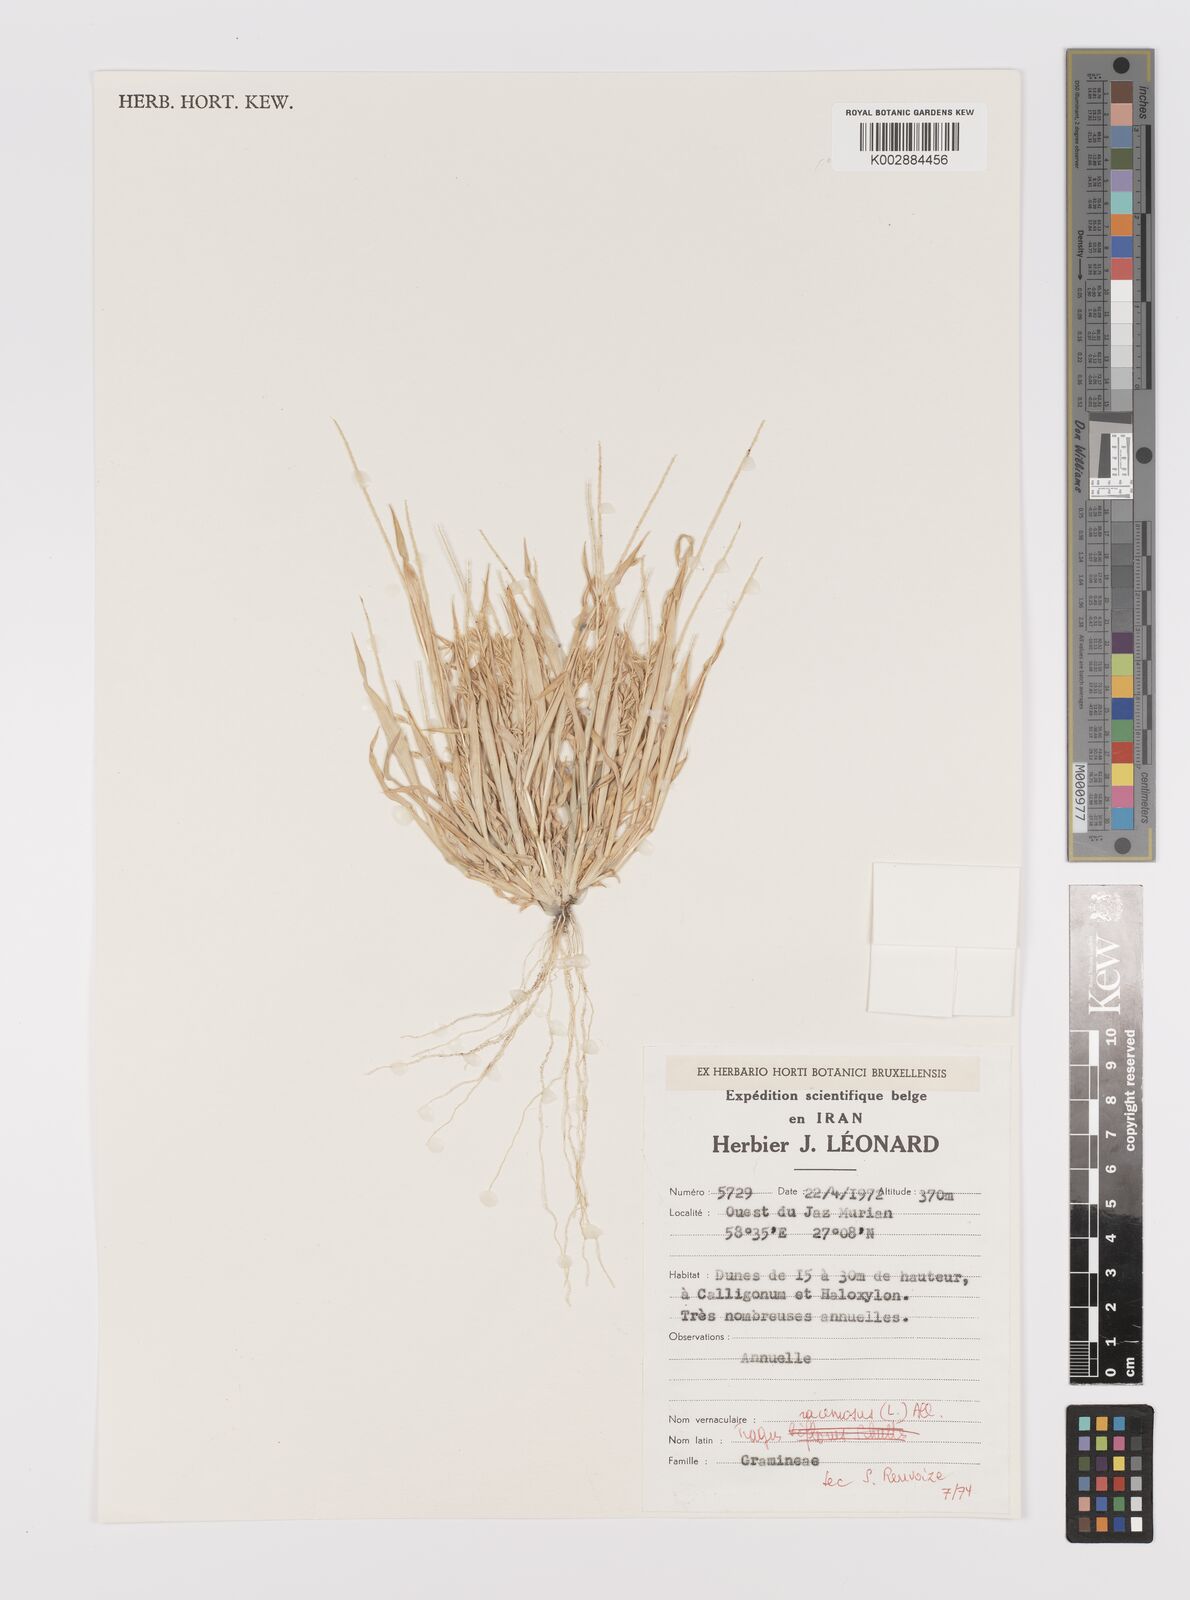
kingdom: Plantae
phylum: Tracheophyta
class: Liliopsida
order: Poales
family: Poaceae
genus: Tragus
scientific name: Tragus racemosus
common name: European bur-grass
